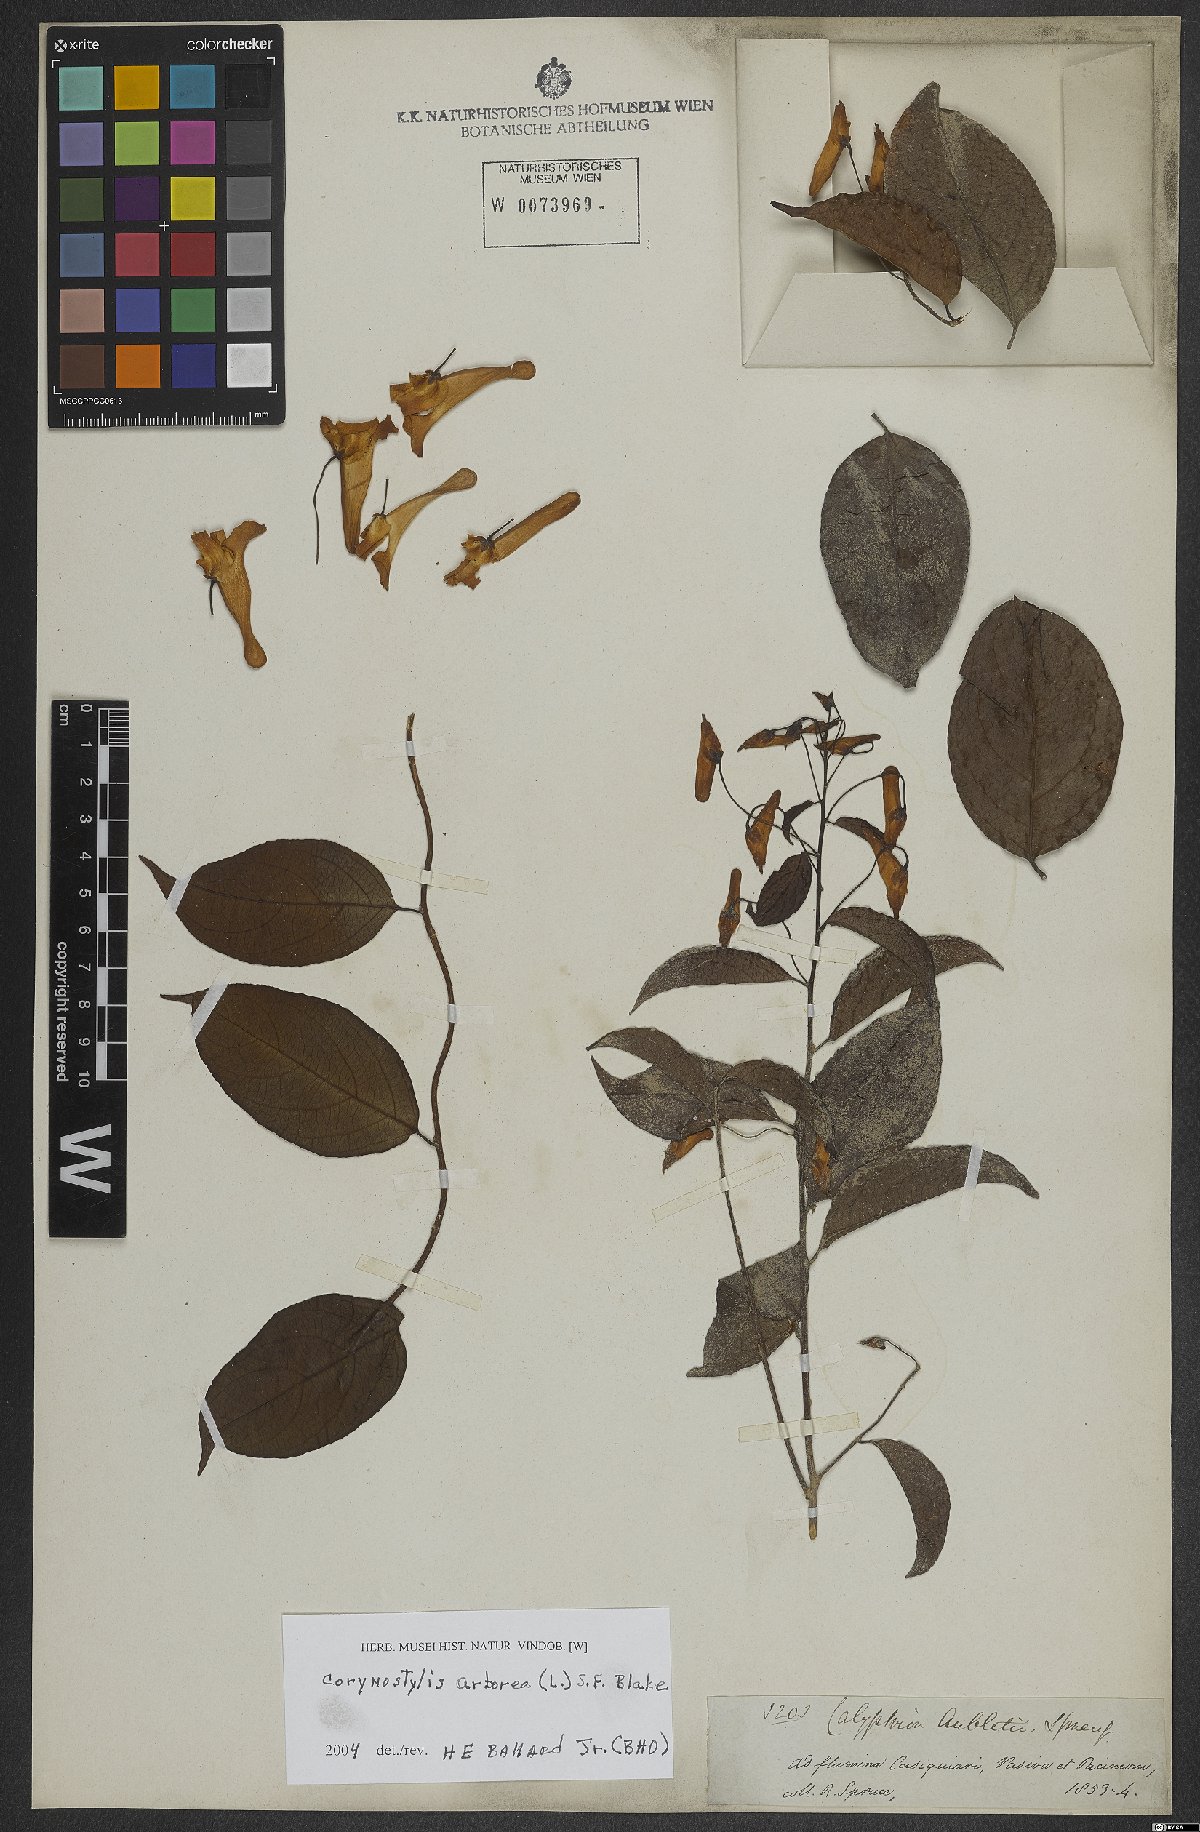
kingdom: Plantae
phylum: Tracheophyta
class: Magnoliopsida
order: Malpighiales
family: Violaceae
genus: Calyptrion
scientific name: Calyptrion arboreum
